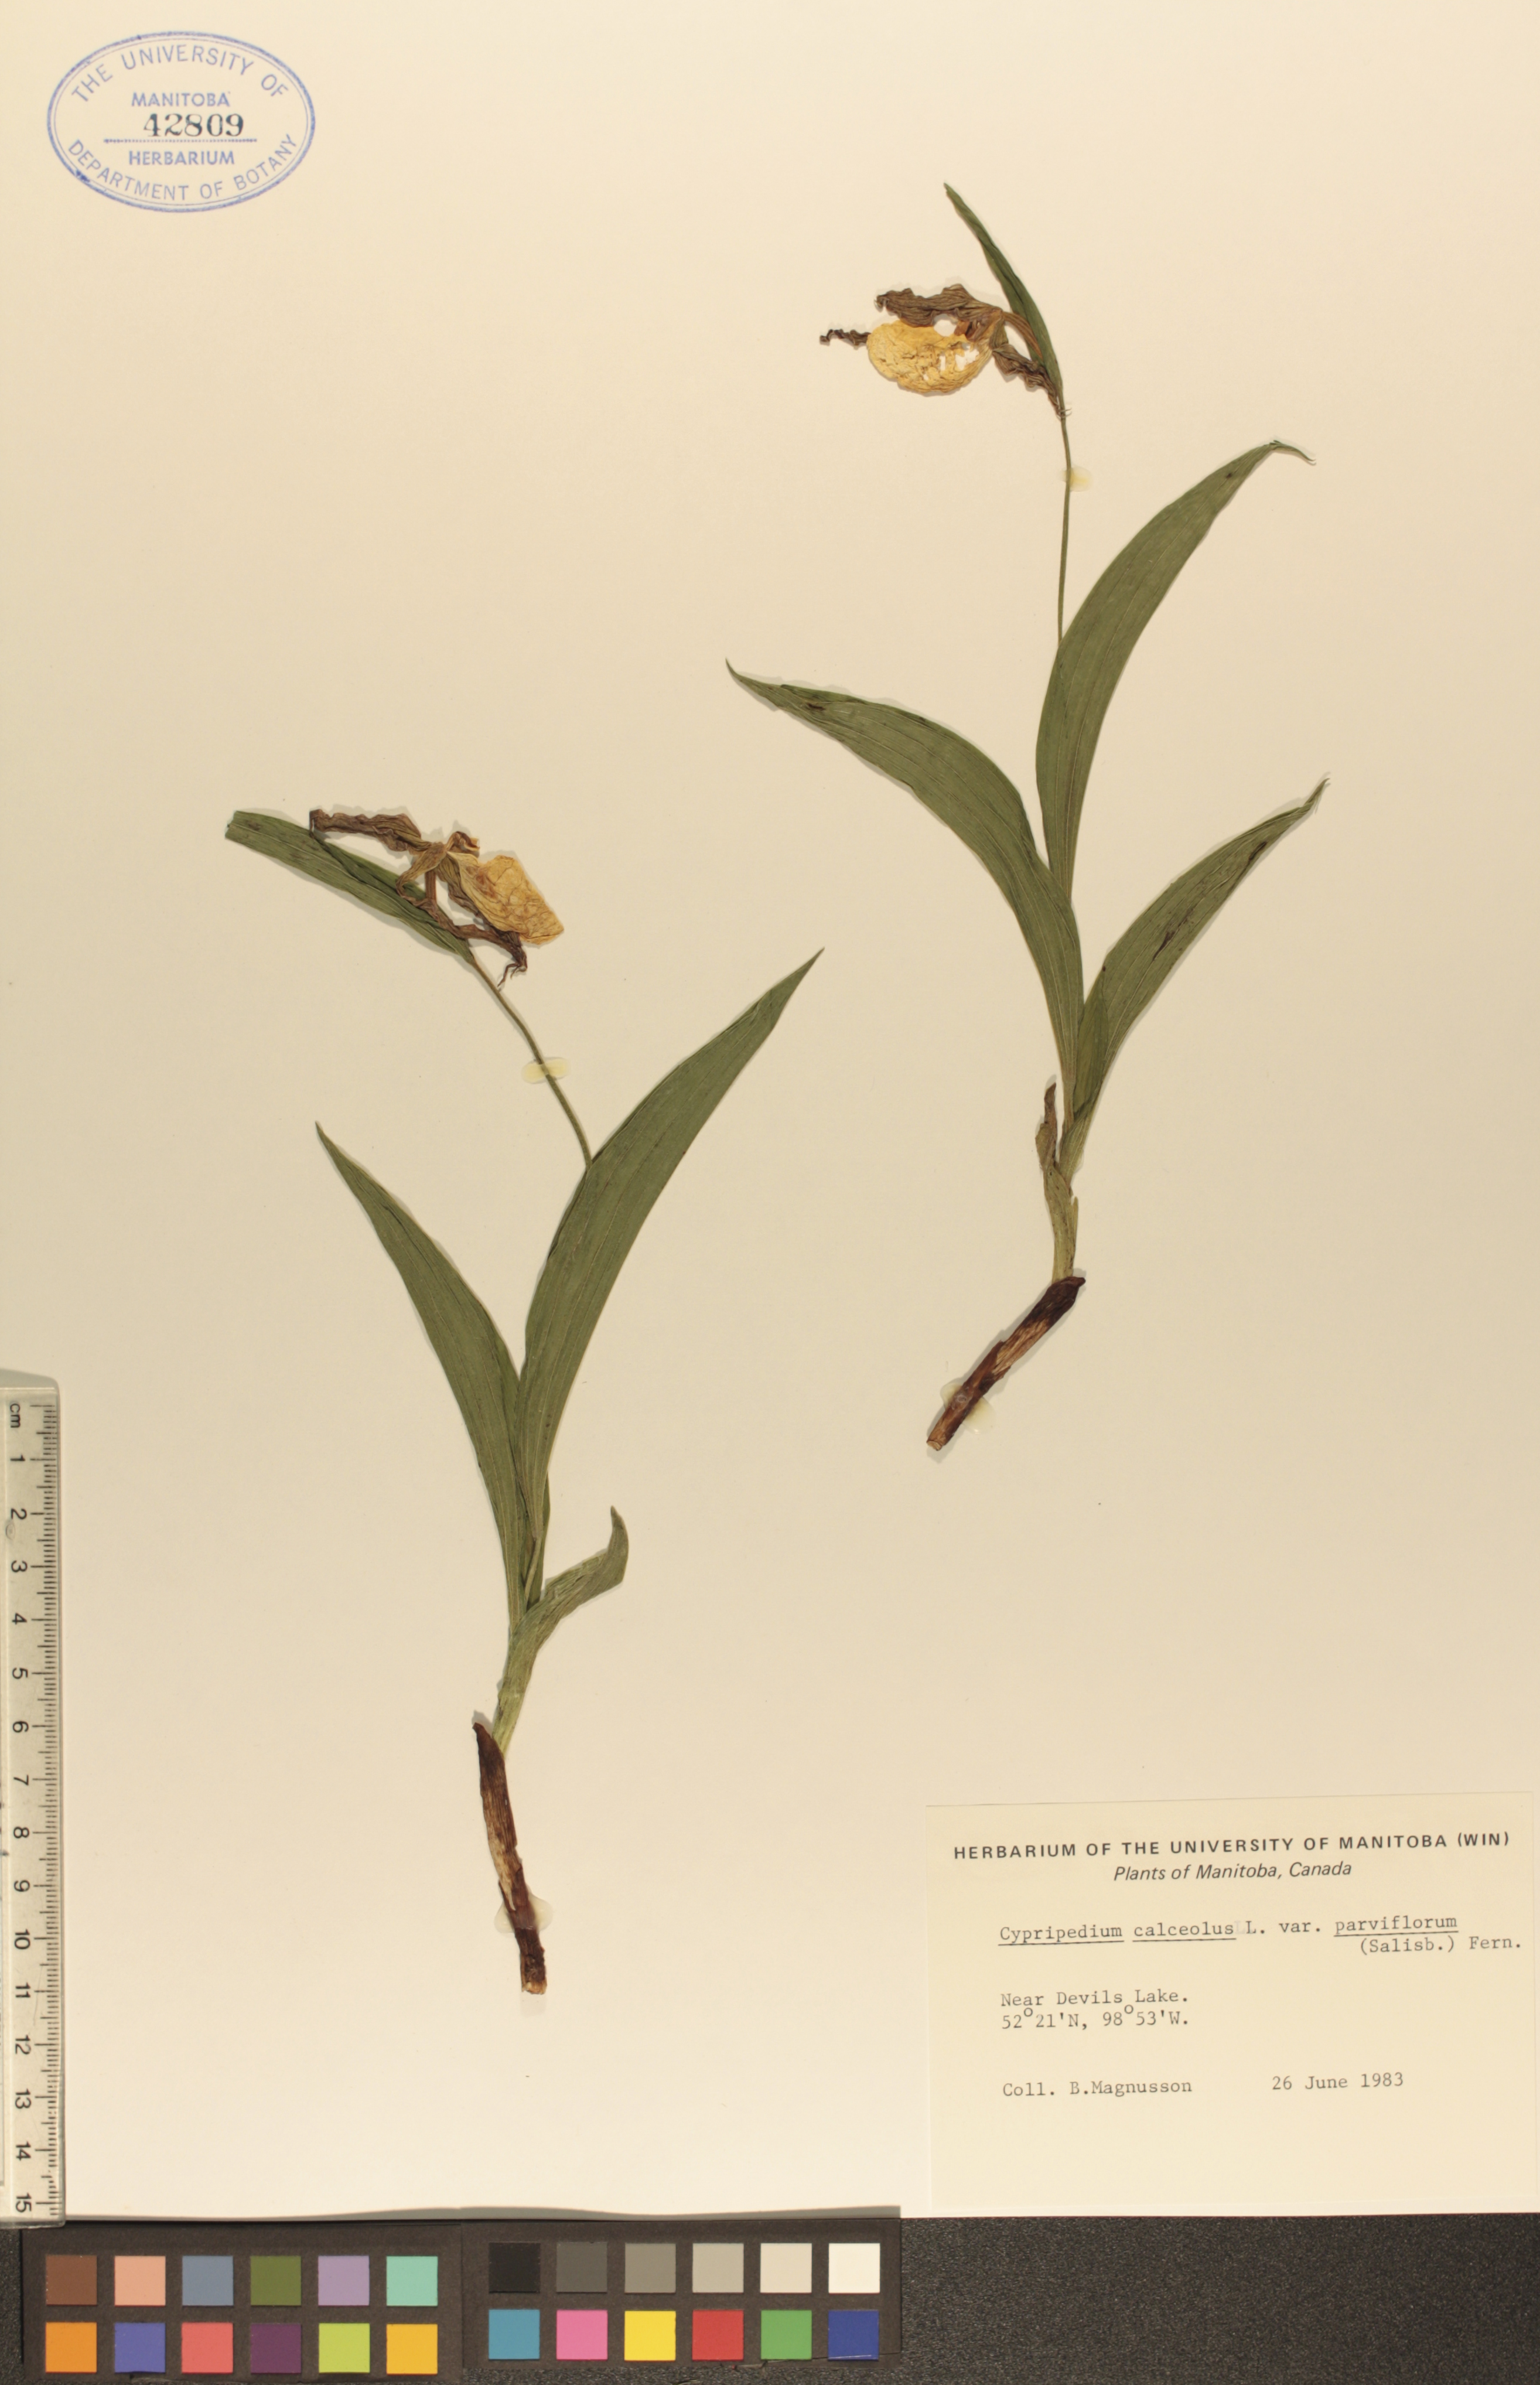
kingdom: Plantae
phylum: Tracheophyta
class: Liliopsida
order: Asparagales
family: Orchidaceae
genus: Cypripedium
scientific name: Cypripedium parviflorum
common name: American yellow lady's-slipper
